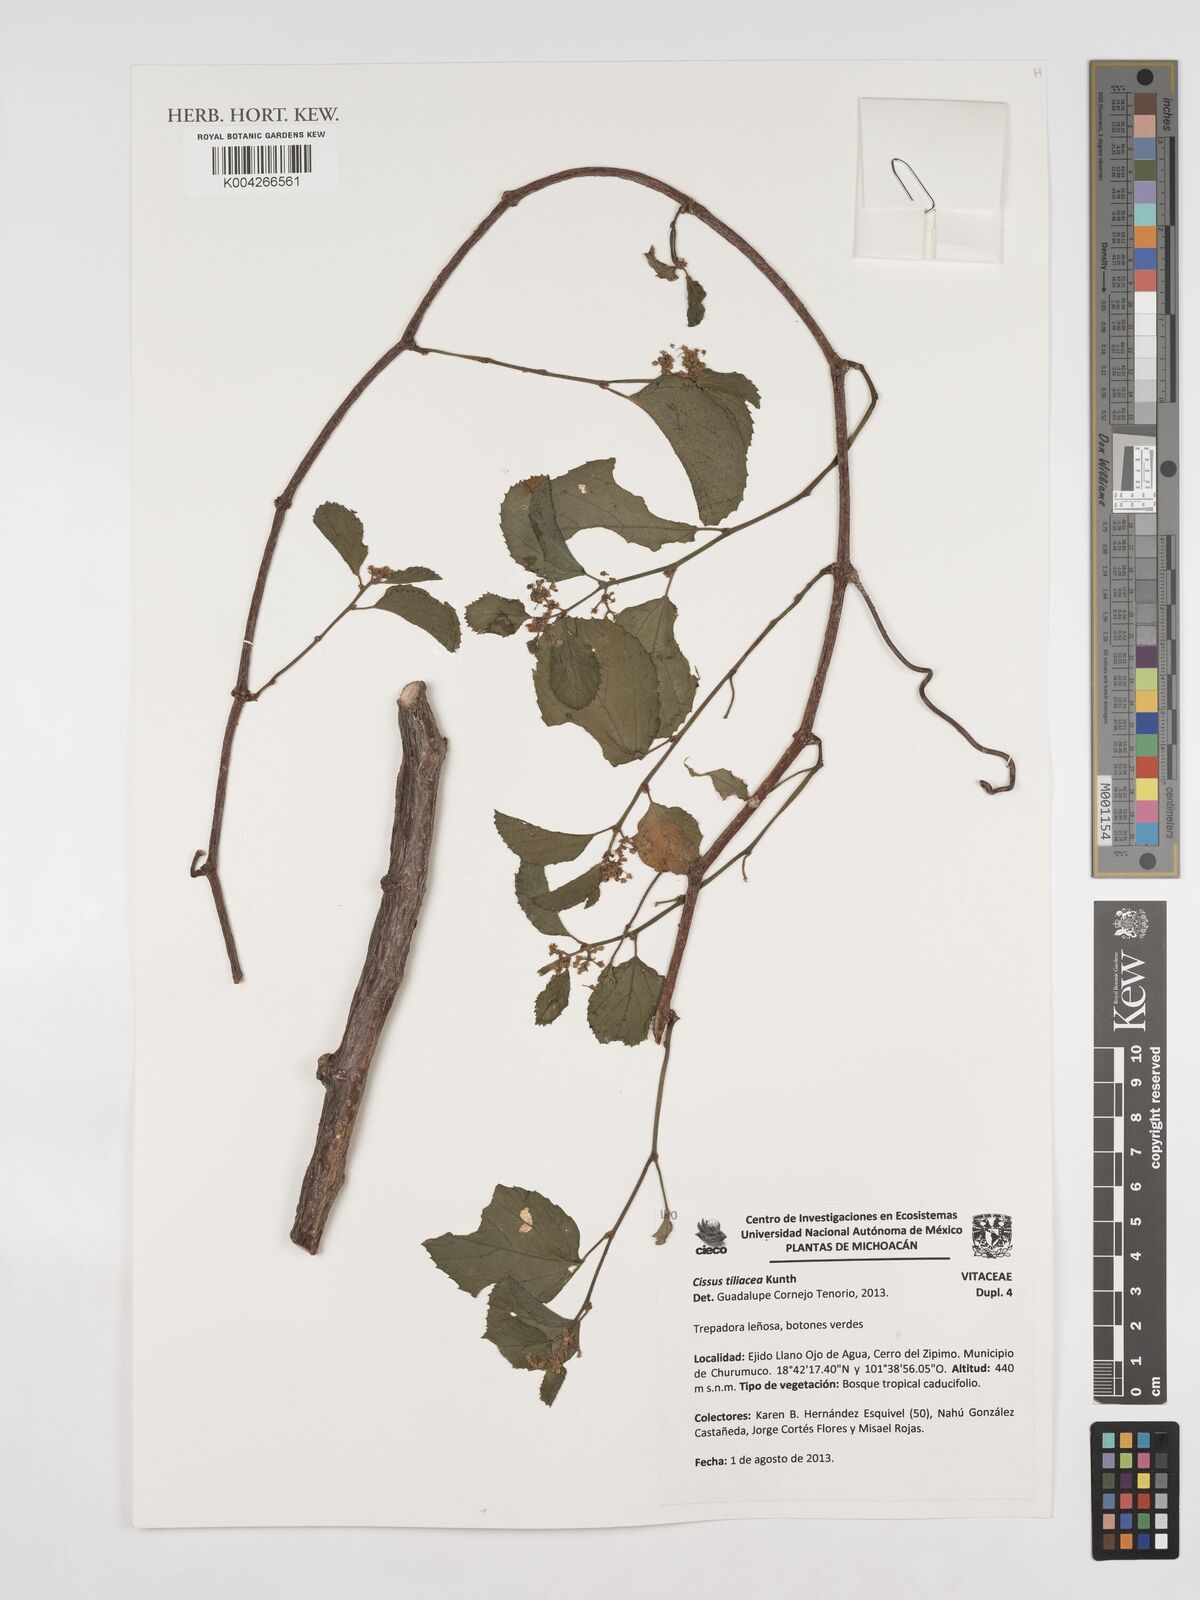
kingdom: Plantae
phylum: Tracheophyta
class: Magnoliopsida
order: Vitales
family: Vitaceae
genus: Cissus
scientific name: Cissus tiliacea
